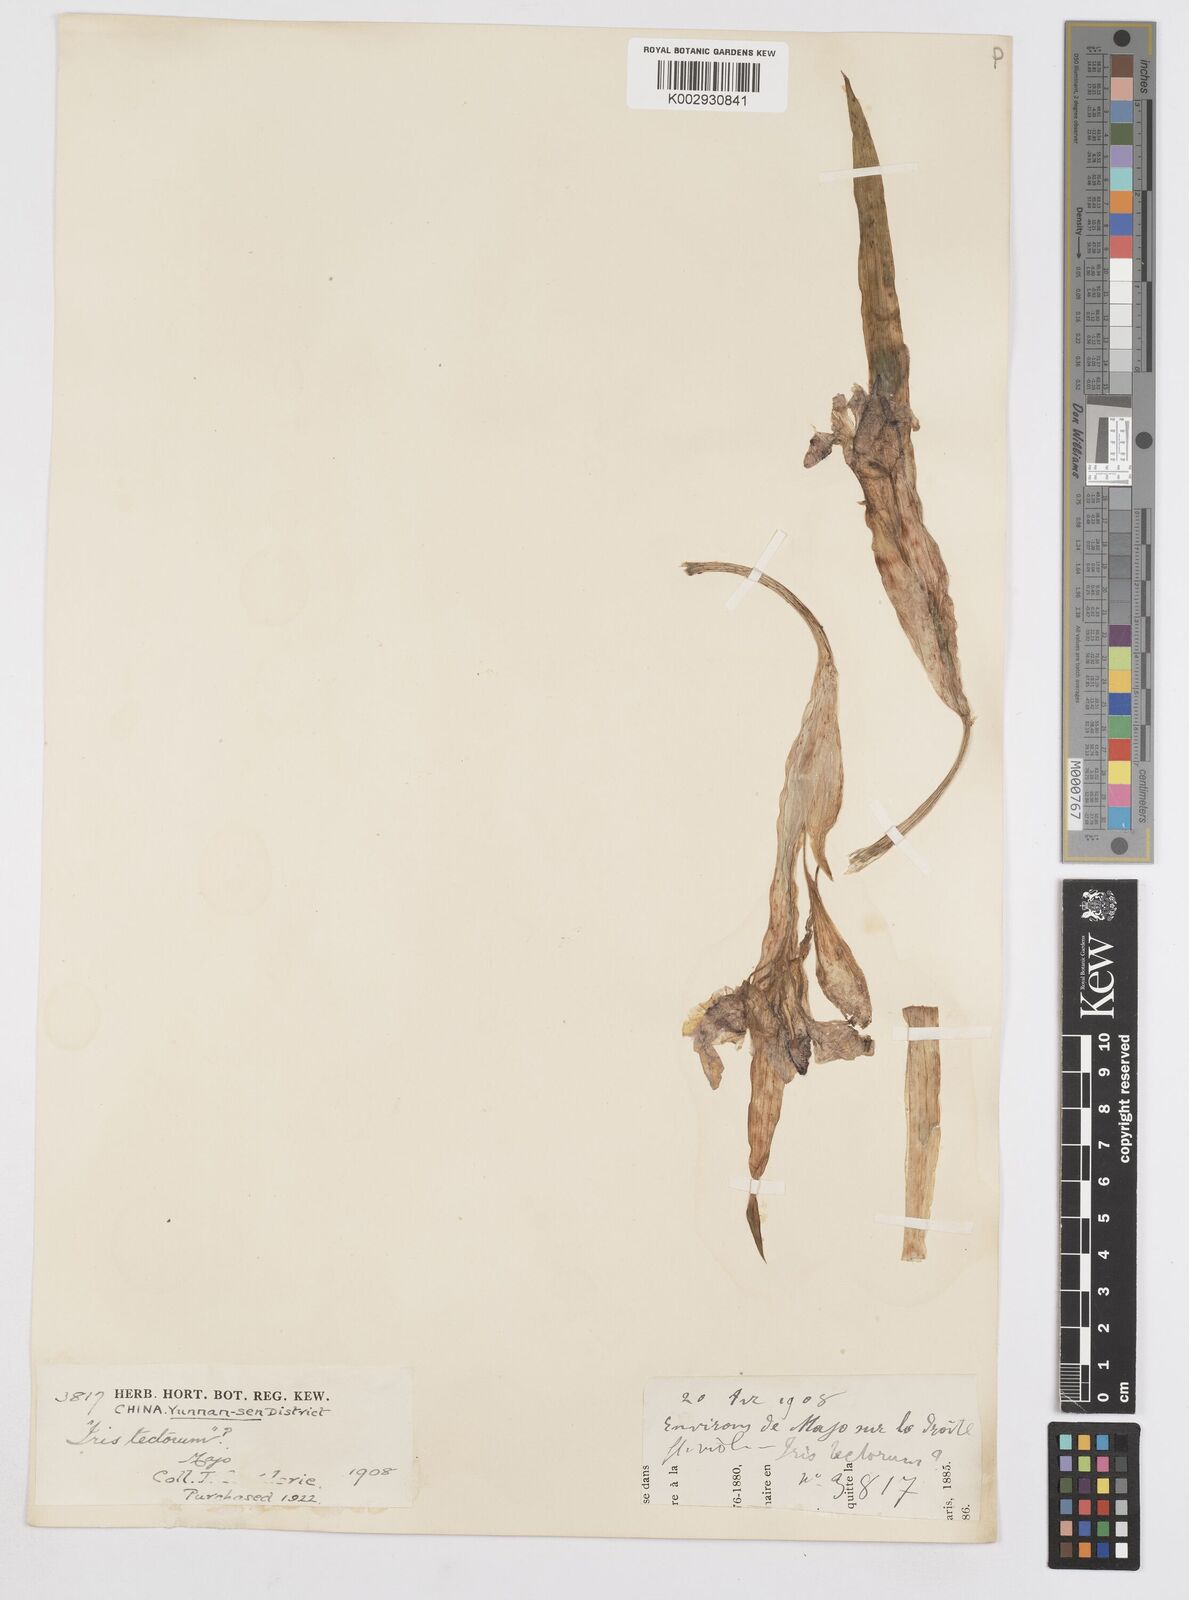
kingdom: Plantae
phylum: Tracheophyta
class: Liliopsida
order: Asparagales
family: Iridaceae
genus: Iris
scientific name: Iris tectorum
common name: Wall iris
